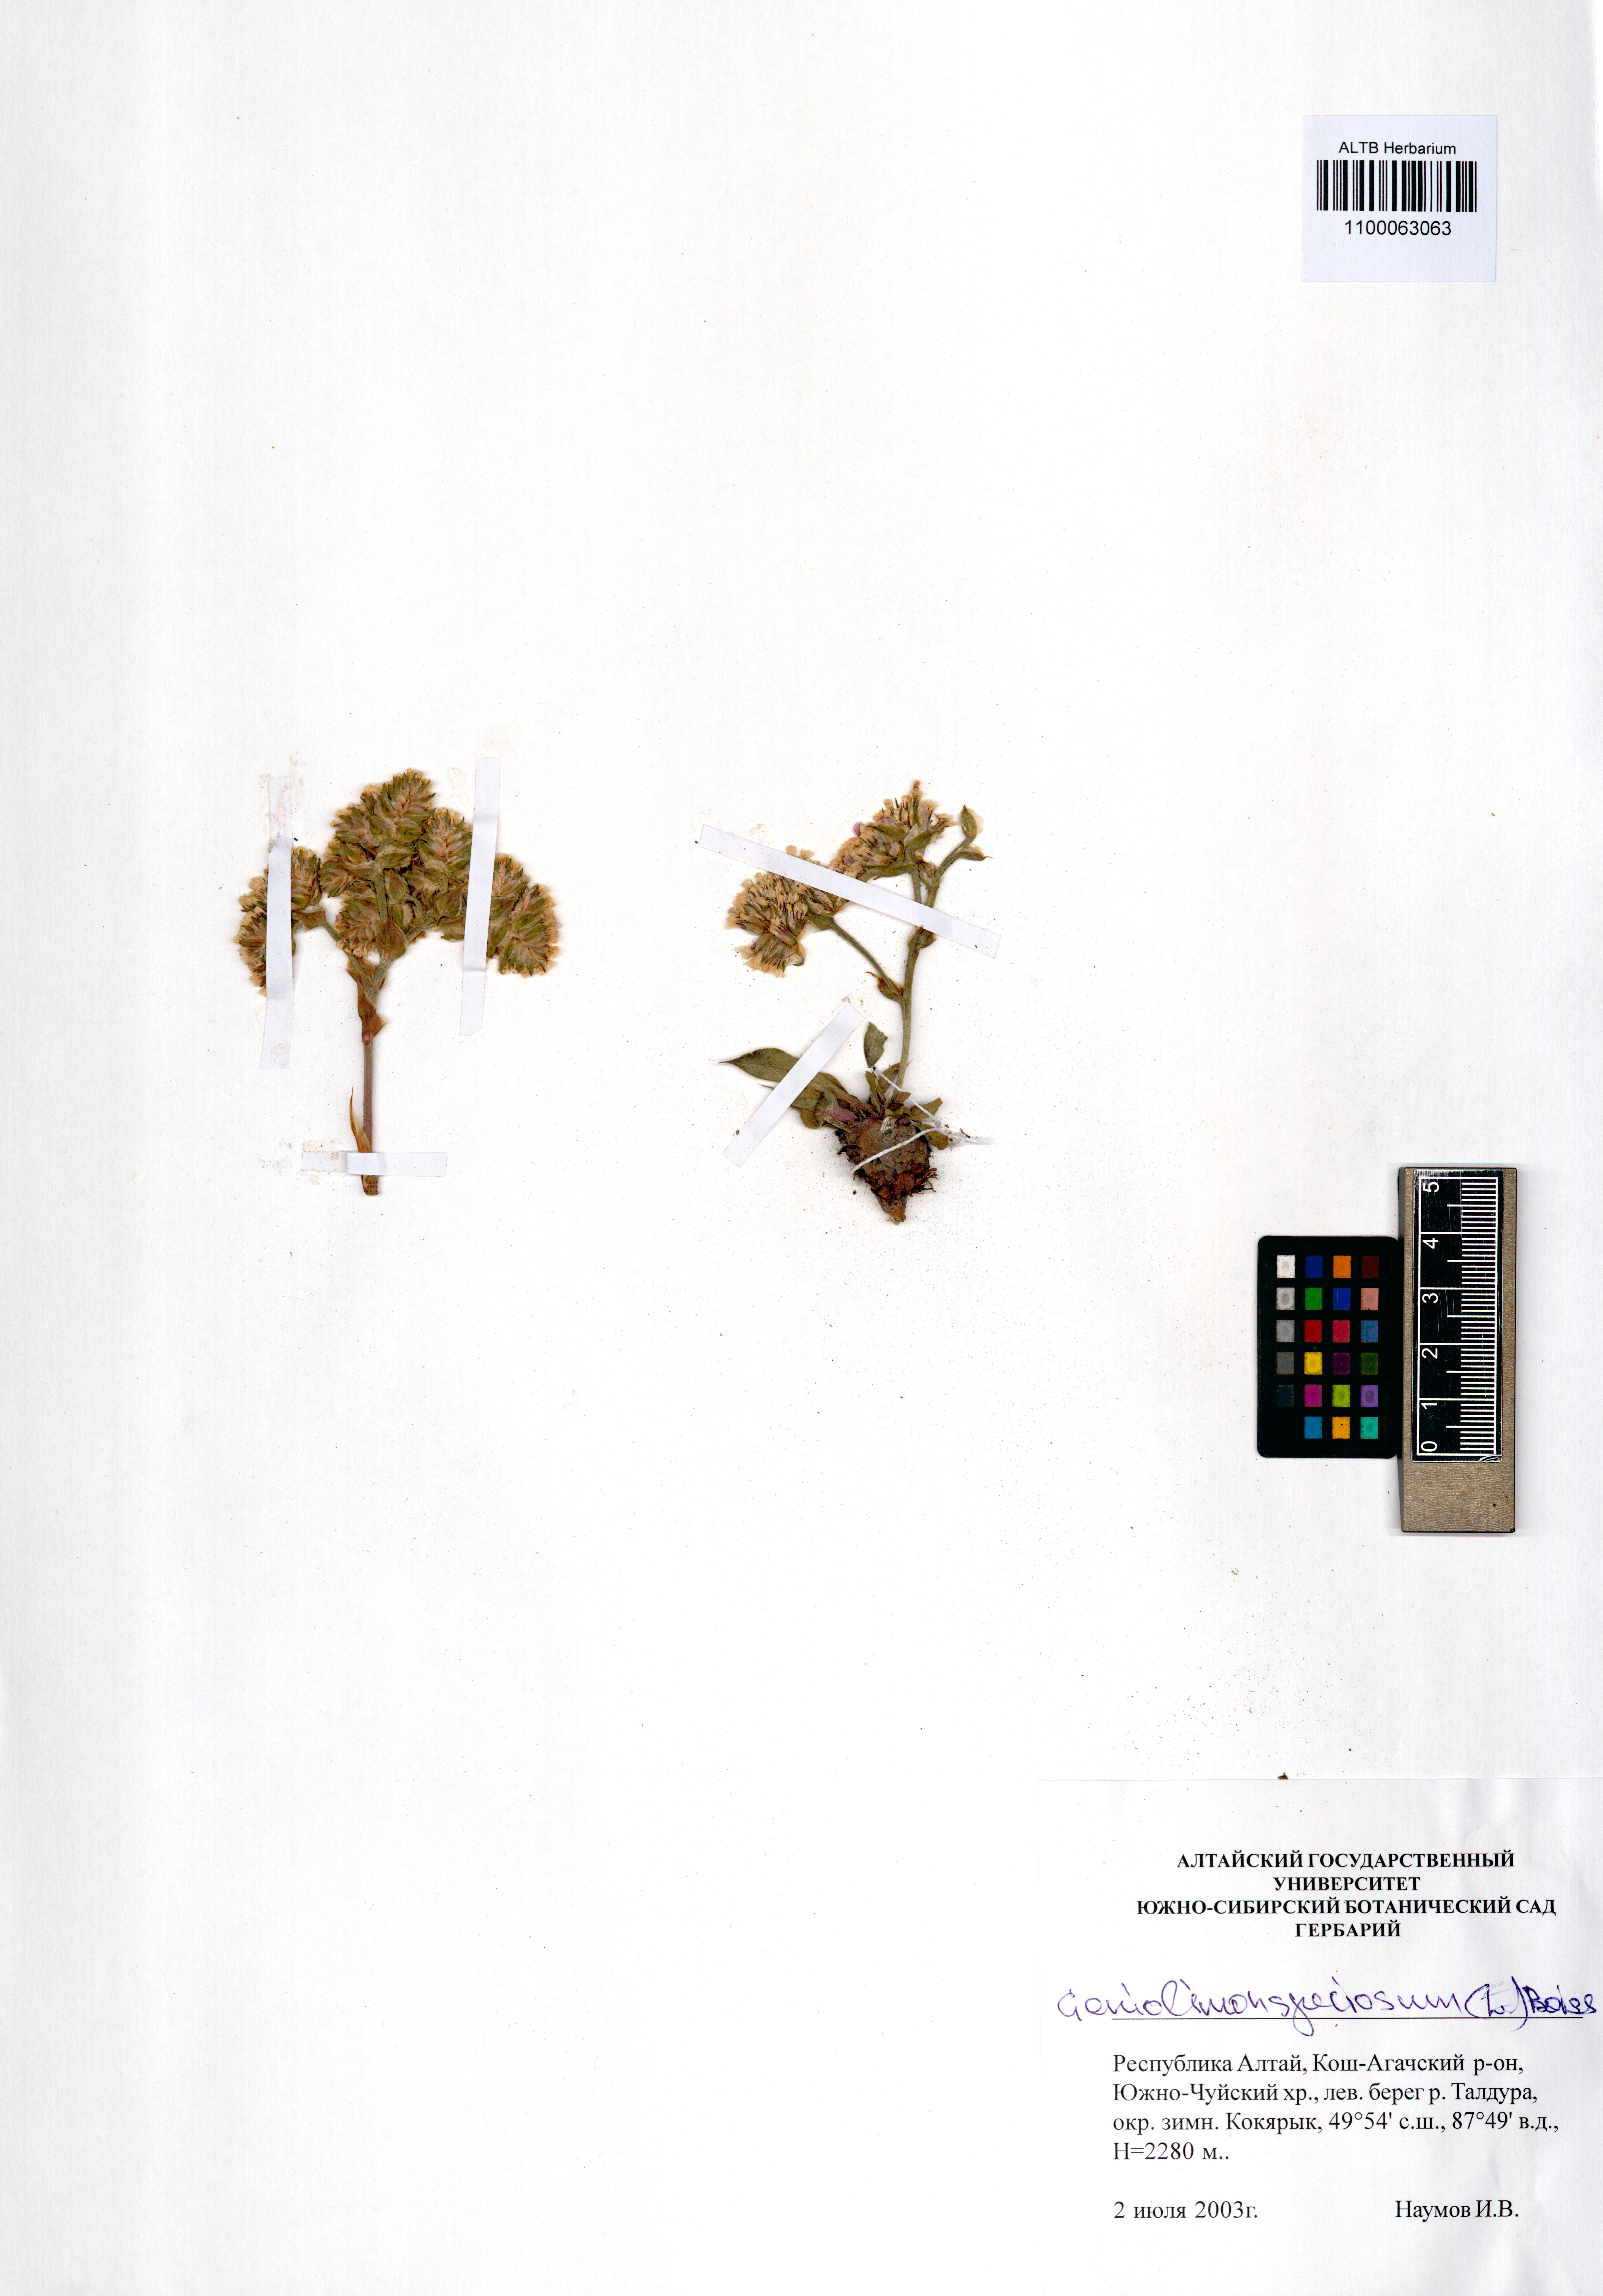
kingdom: Plantae
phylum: Tracheophyta
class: Magnoliopsida
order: Caryophyllales
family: Plumbaginaceae
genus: Goniolimon
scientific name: Goniolimon speciosum
